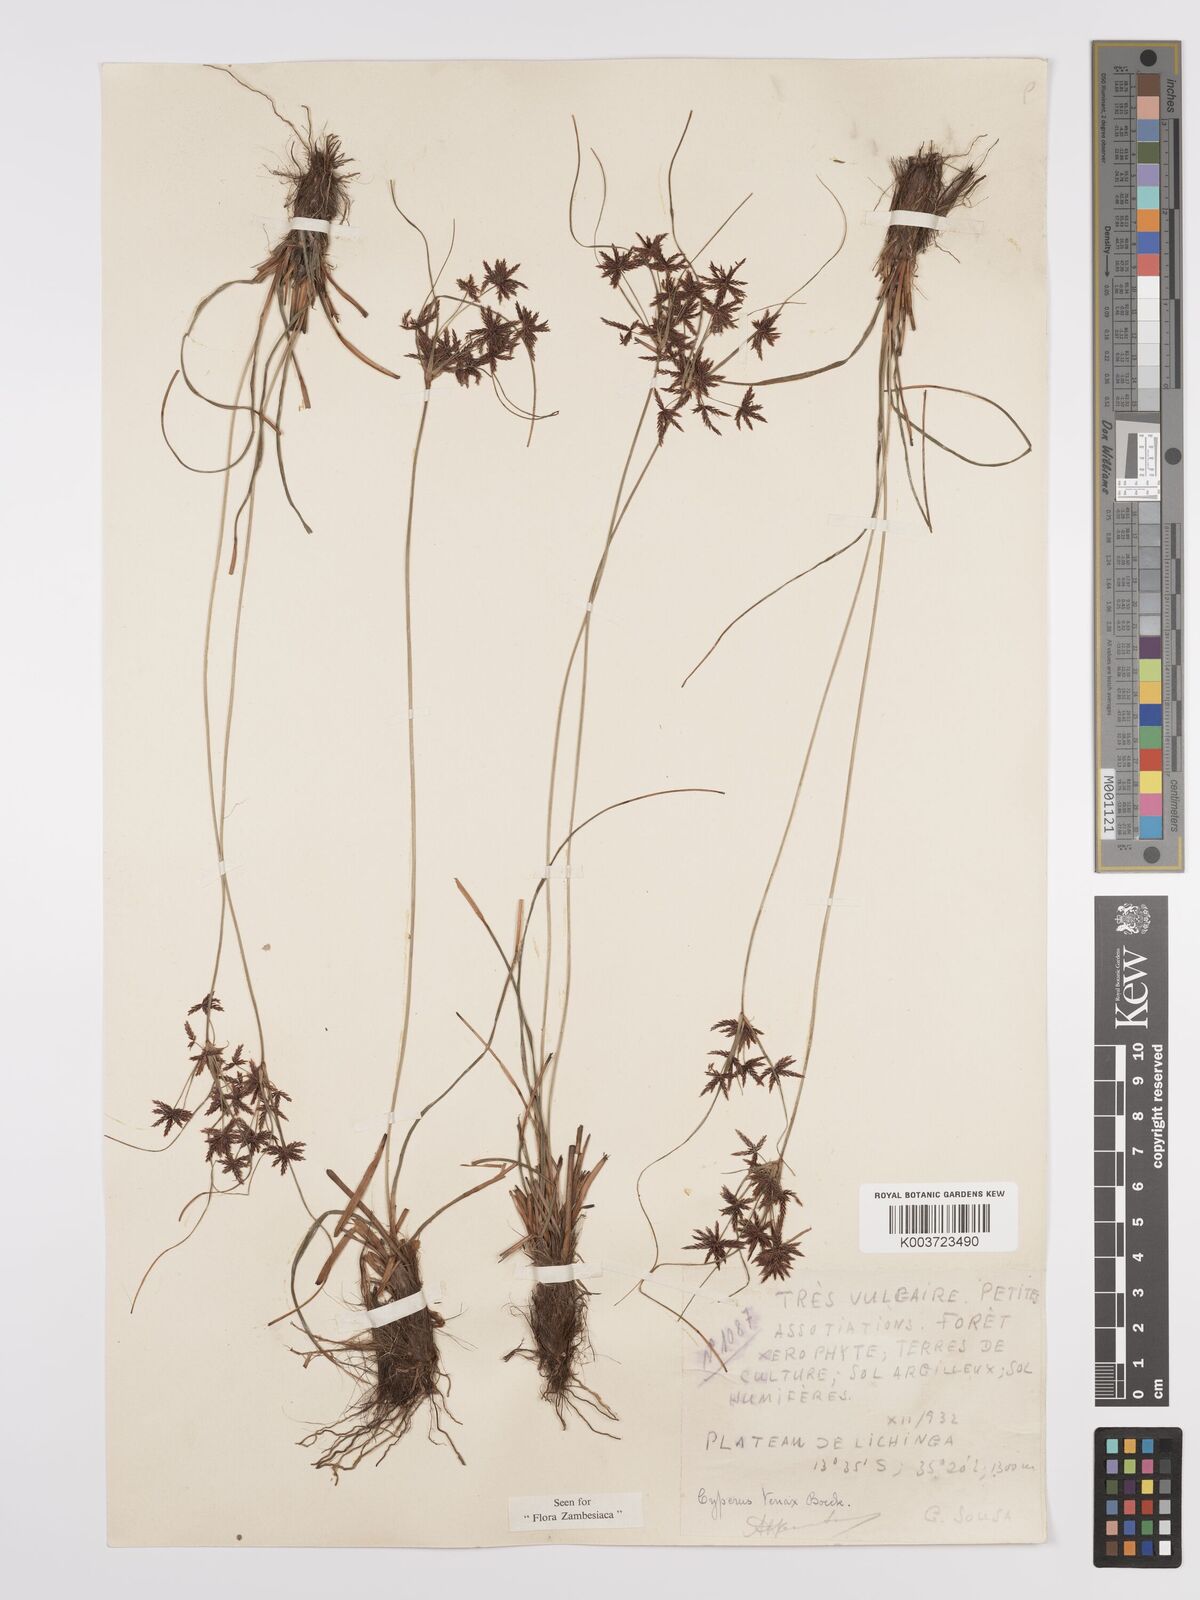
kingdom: Plantae
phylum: Tracheophyta
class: Liliopsida
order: Poales
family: Cyperaceae
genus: Cyperus
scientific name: Cyperus tenax
